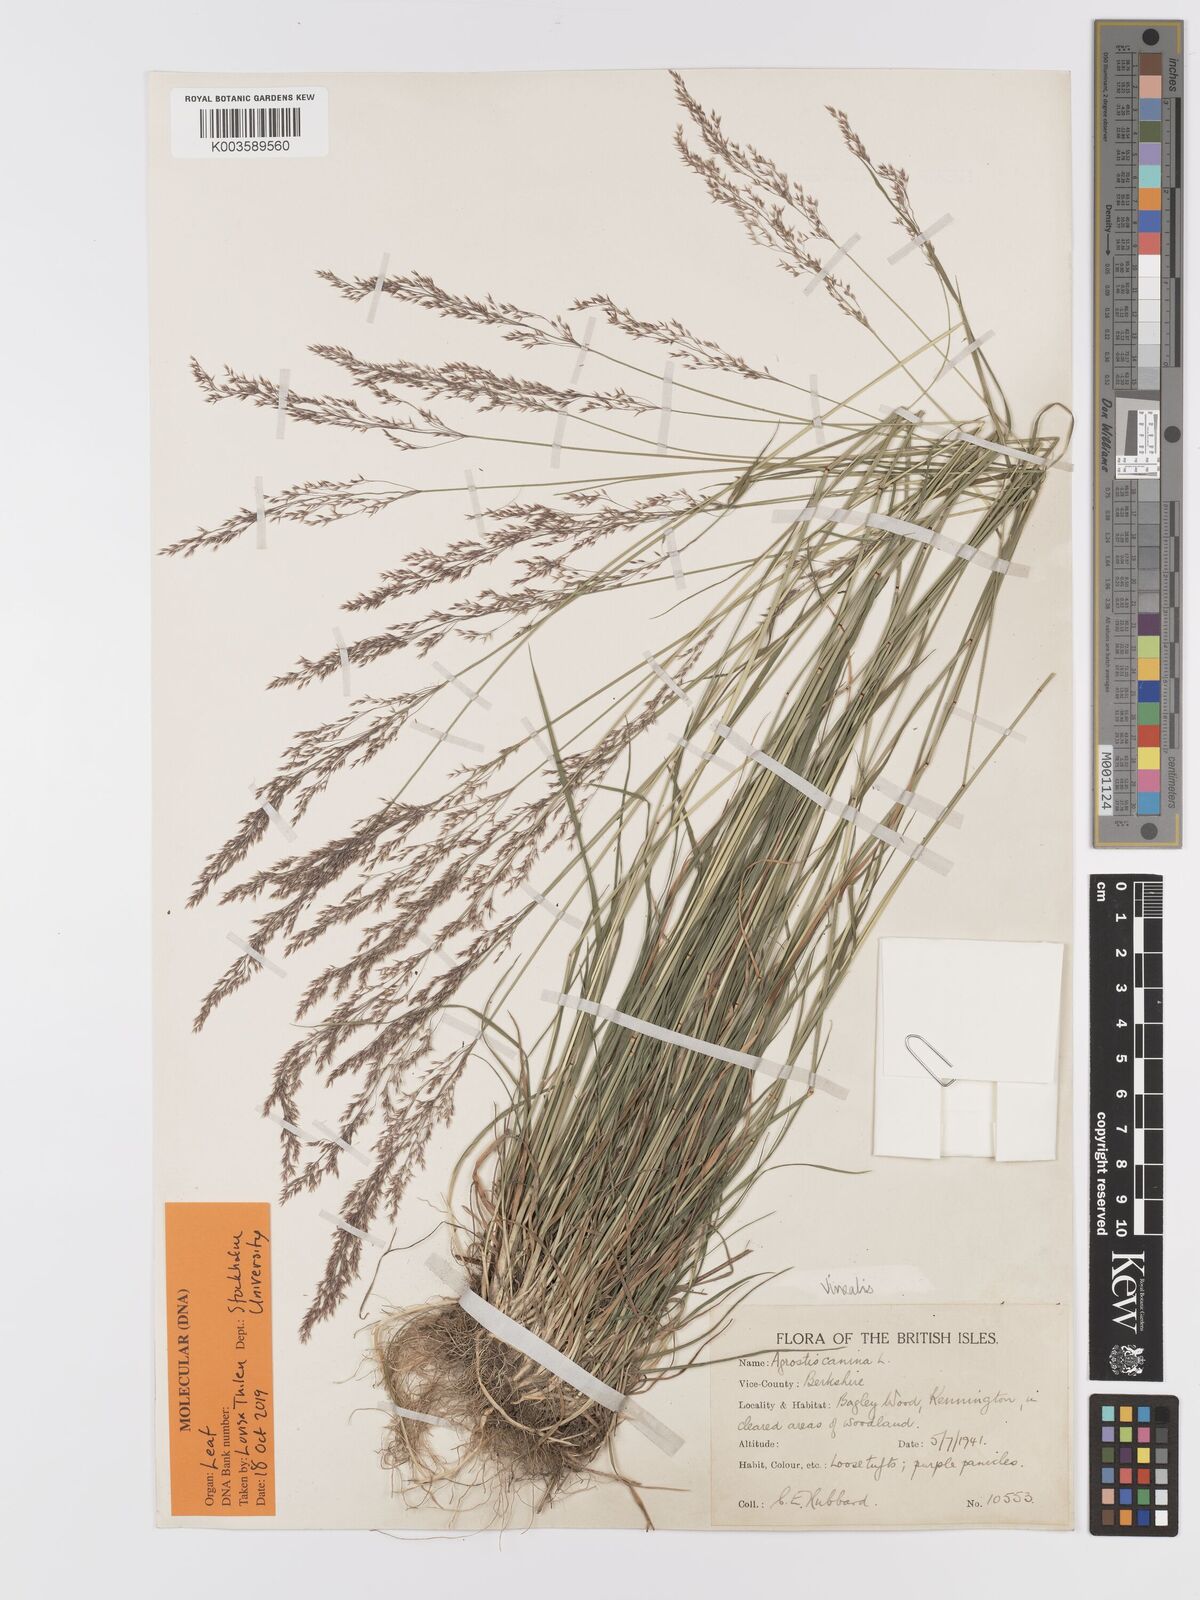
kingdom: Plantae
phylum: Tracheophyta
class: Liliopsida
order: Poales
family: Poaceae
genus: Agrostis
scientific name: Agrostis
